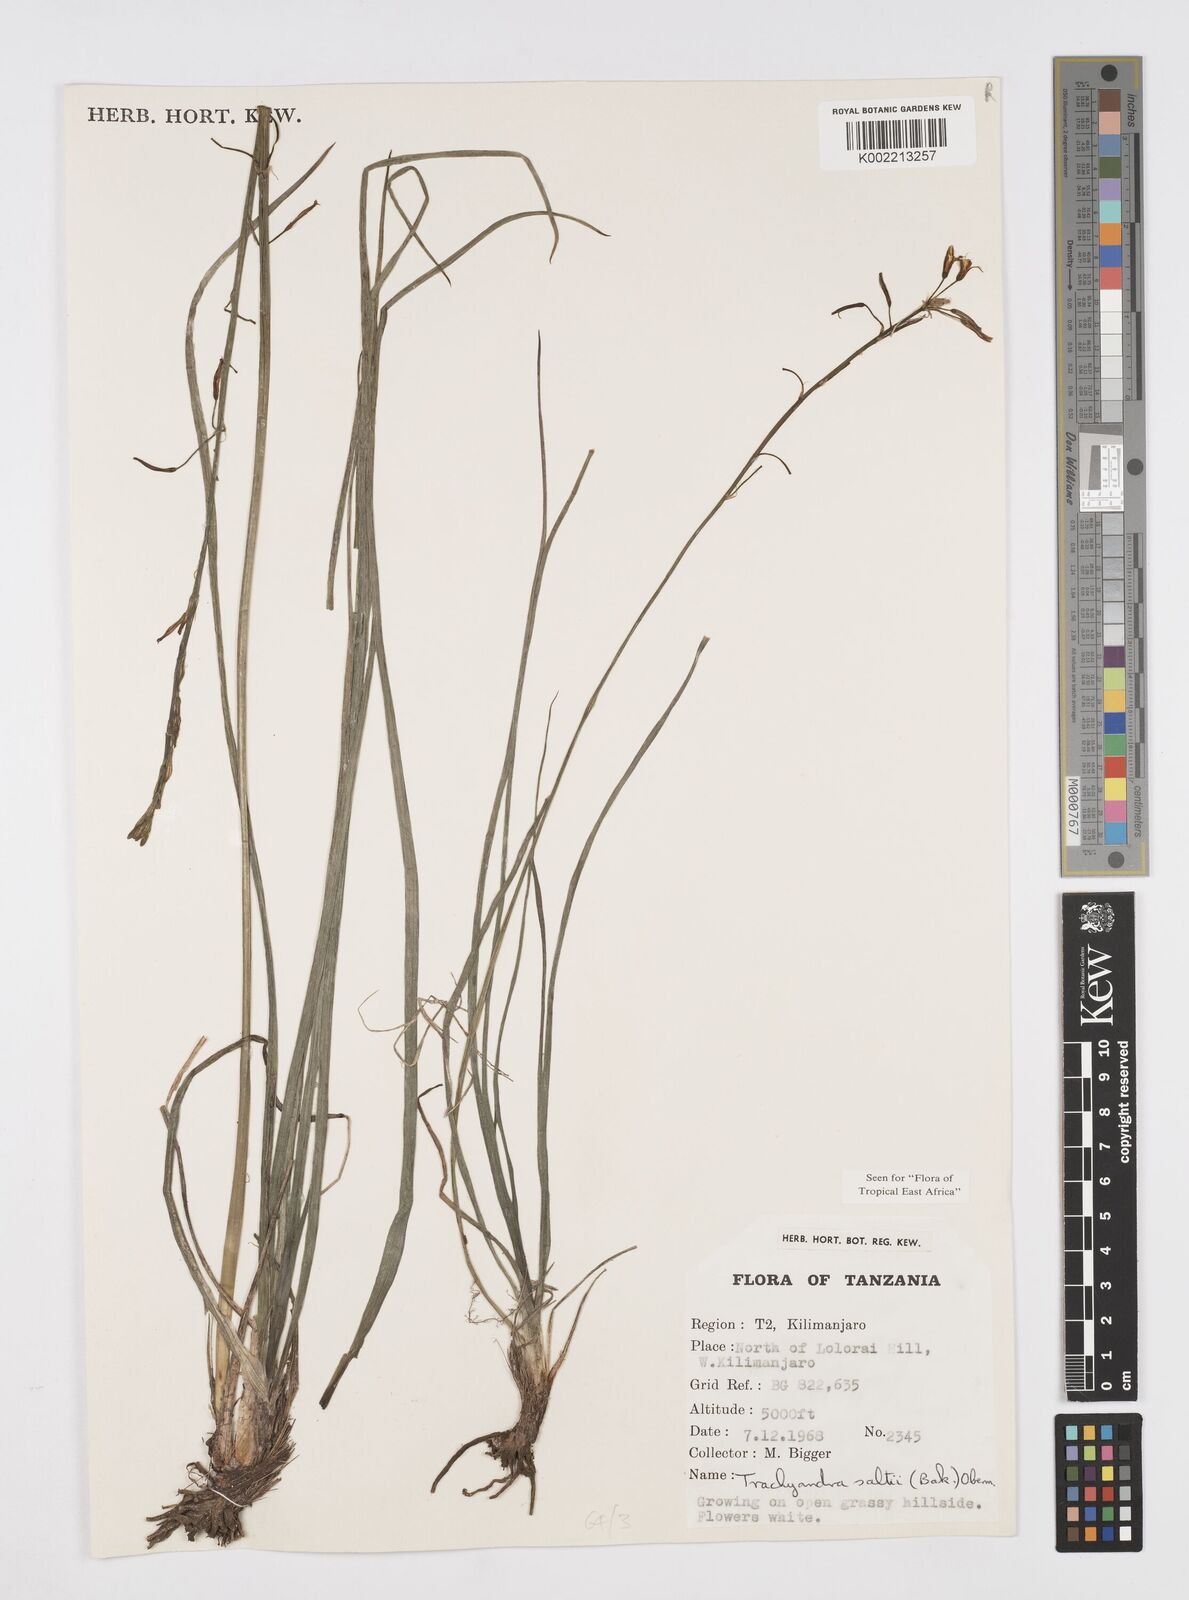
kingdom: Plantae
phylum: Tracheophyta
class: Liliopsida
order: Asparagales
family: Asphodelaceae
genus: Trachyandra
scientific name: Trachyandra saltii
